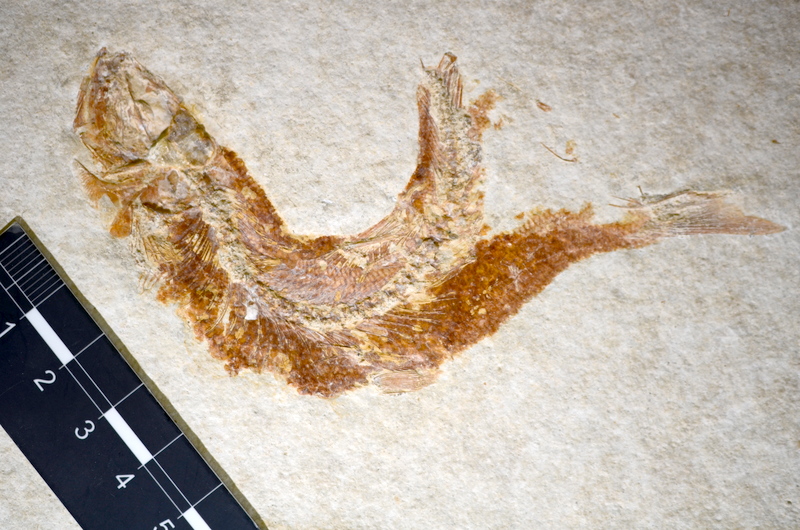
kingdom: Animalia
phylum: Chordata
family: Ascalaboidae
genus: Tharsis
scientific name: Tharsis dubius
